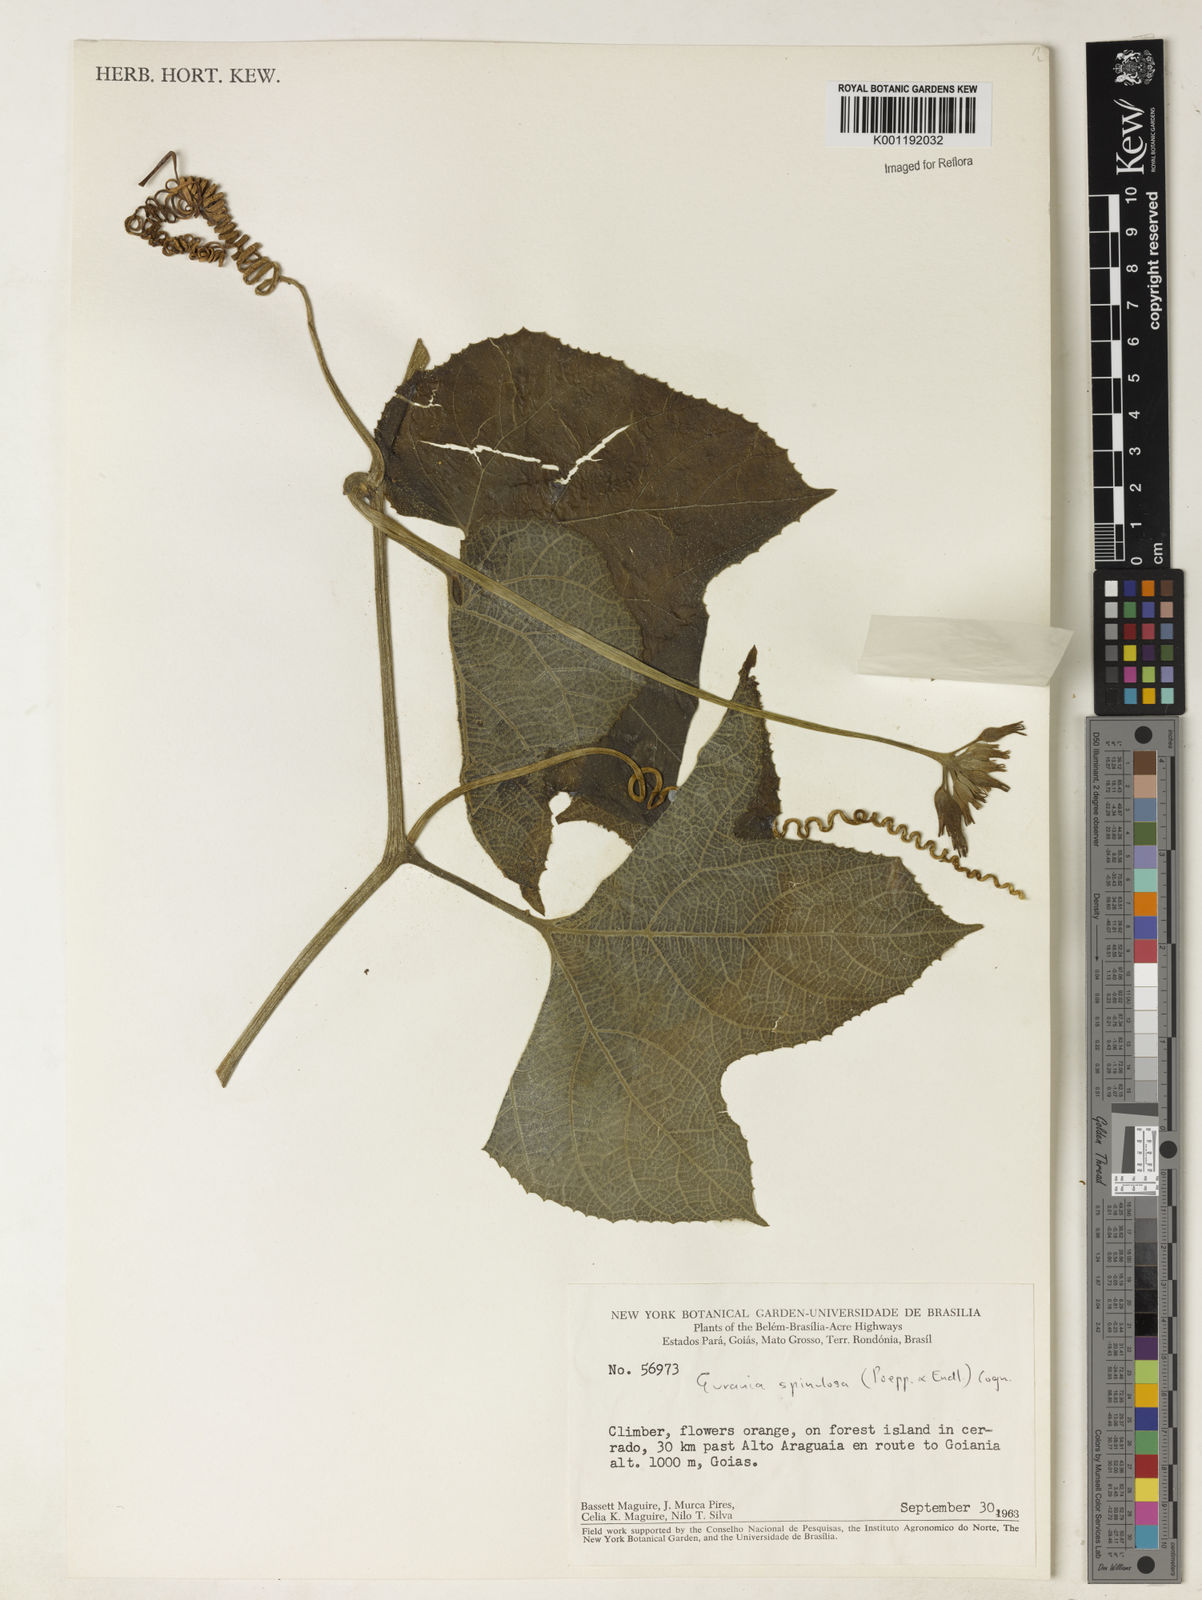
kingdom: Plantae
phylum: Tracheophyta
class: Magnoliopsida
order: Cucurbitales
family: Cucurbitaceae
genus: Gurania
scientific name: Gurania lobata
